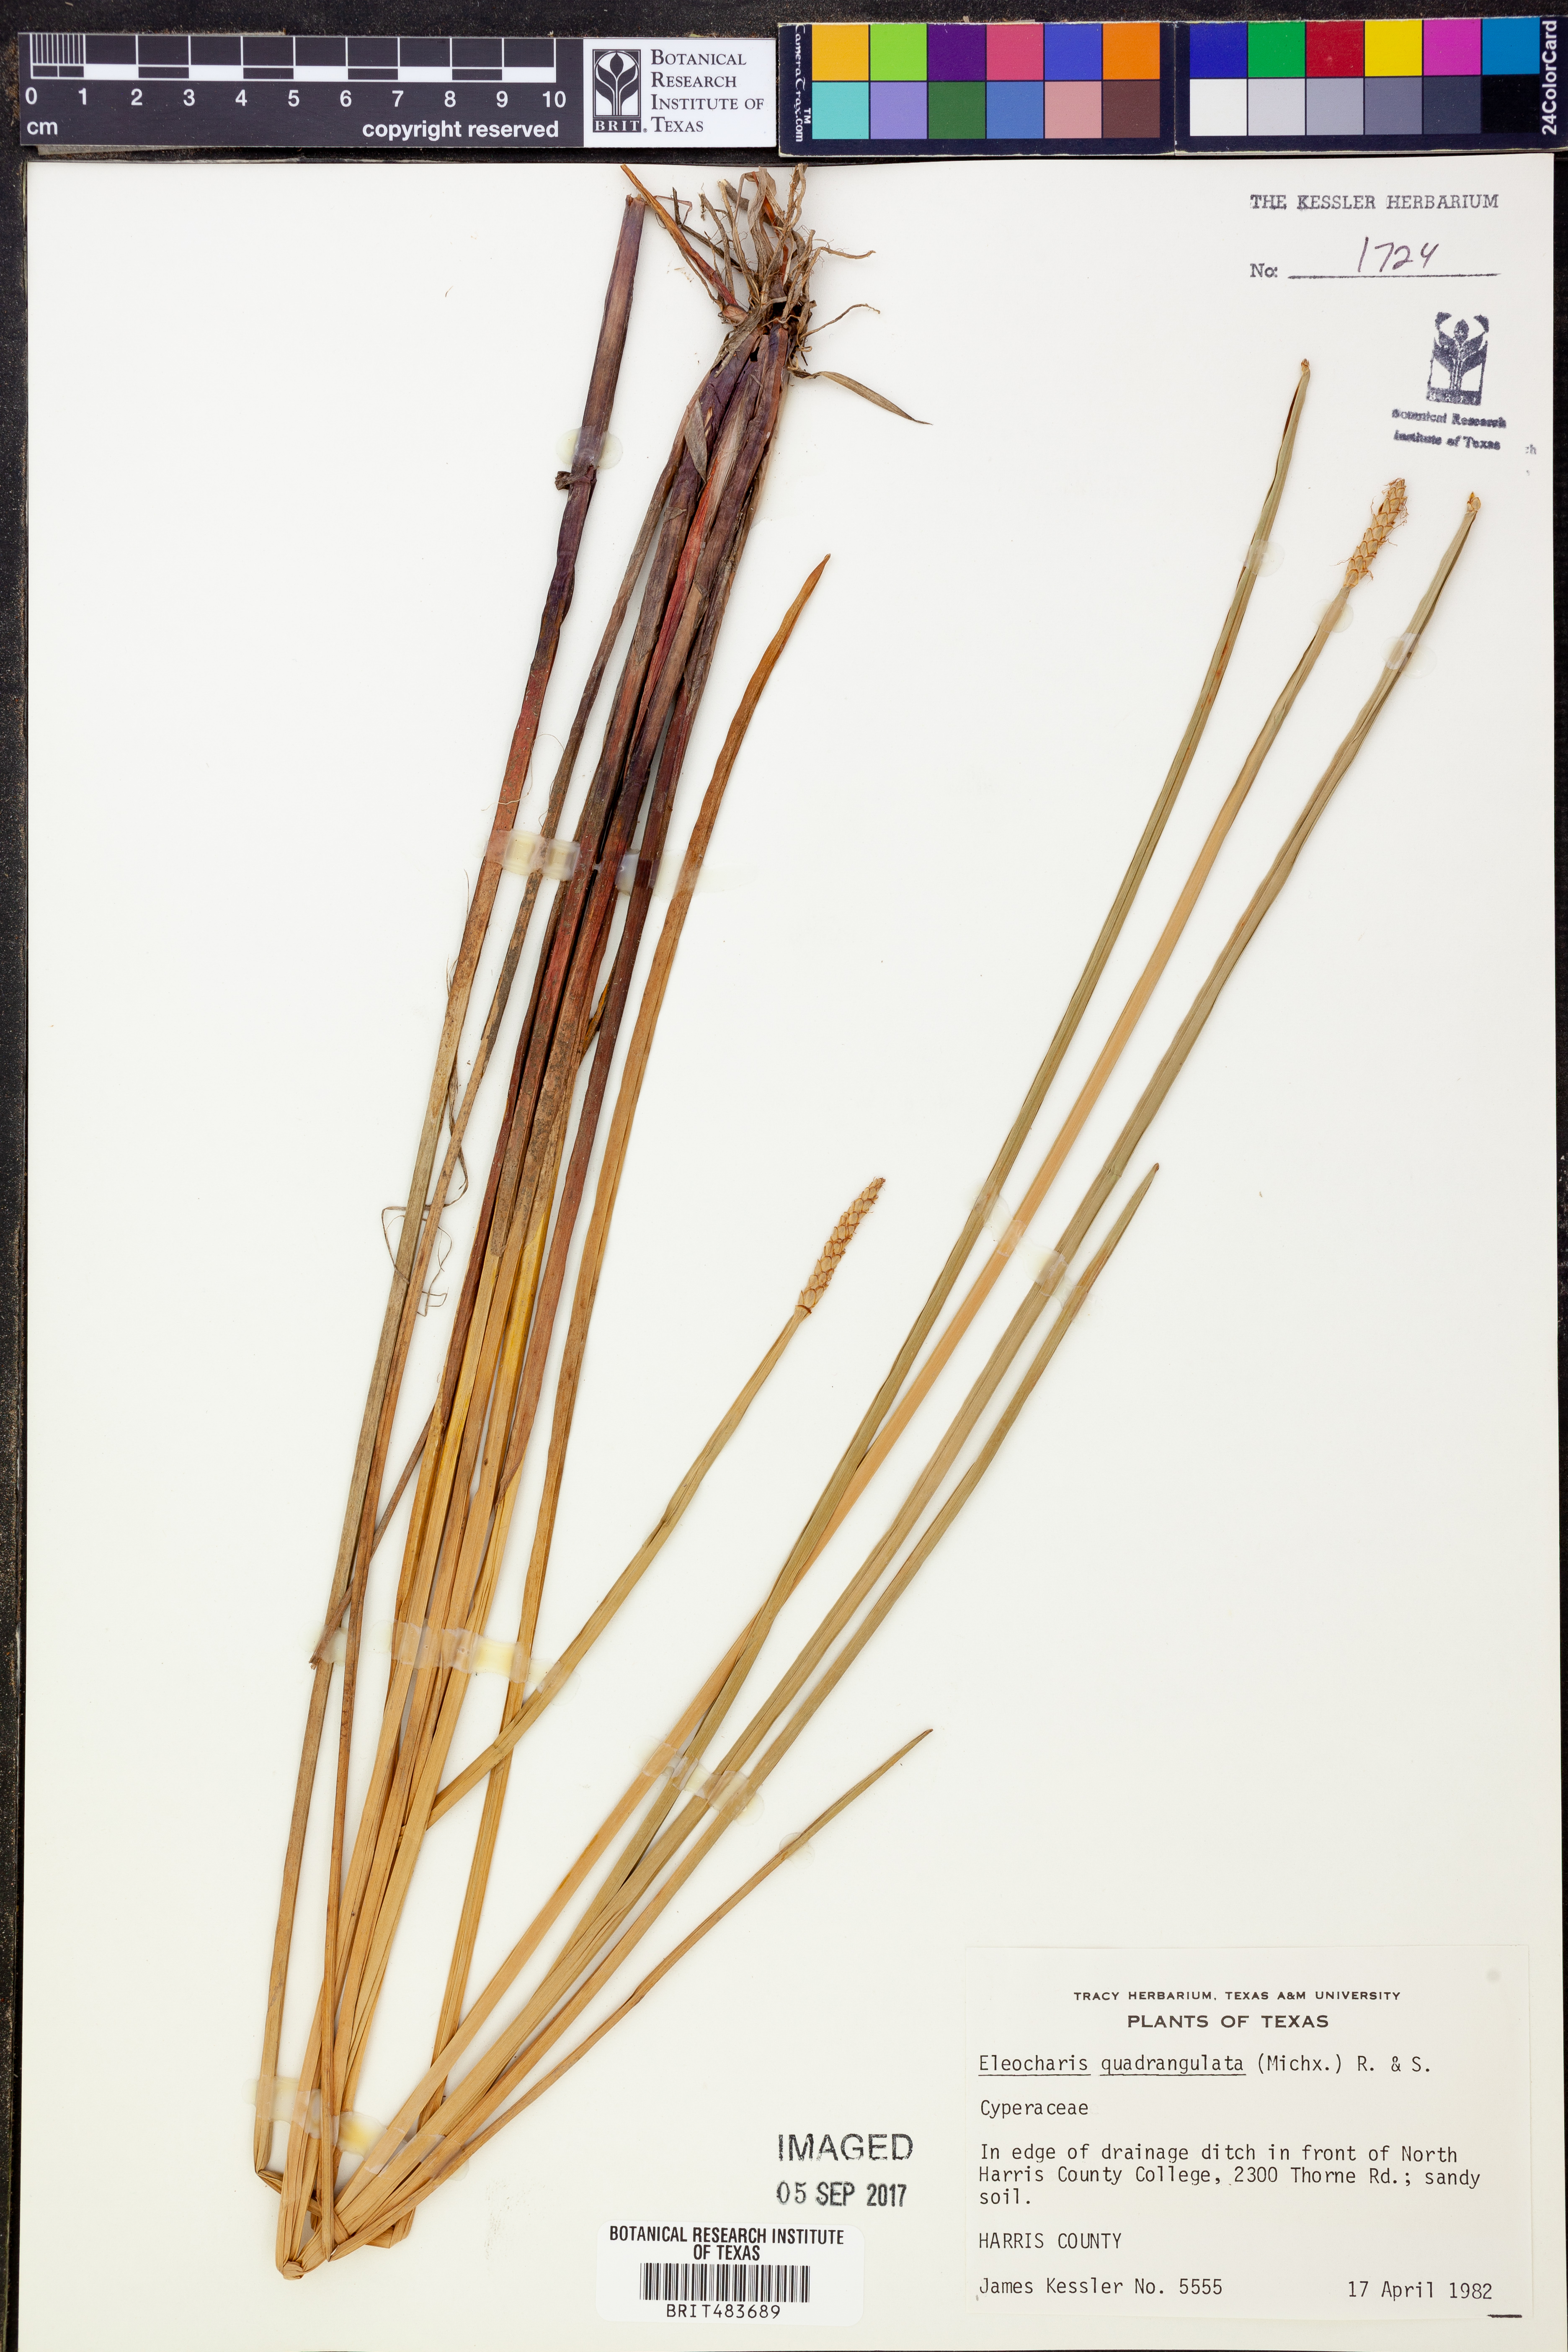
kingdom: Plantae
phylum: Tracheophyta
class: Liliopsida
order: Poales
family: Cyperaceae
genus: Eleocharis
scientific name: Eleocharis quadrangulata
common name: Square-stem spike-rush
